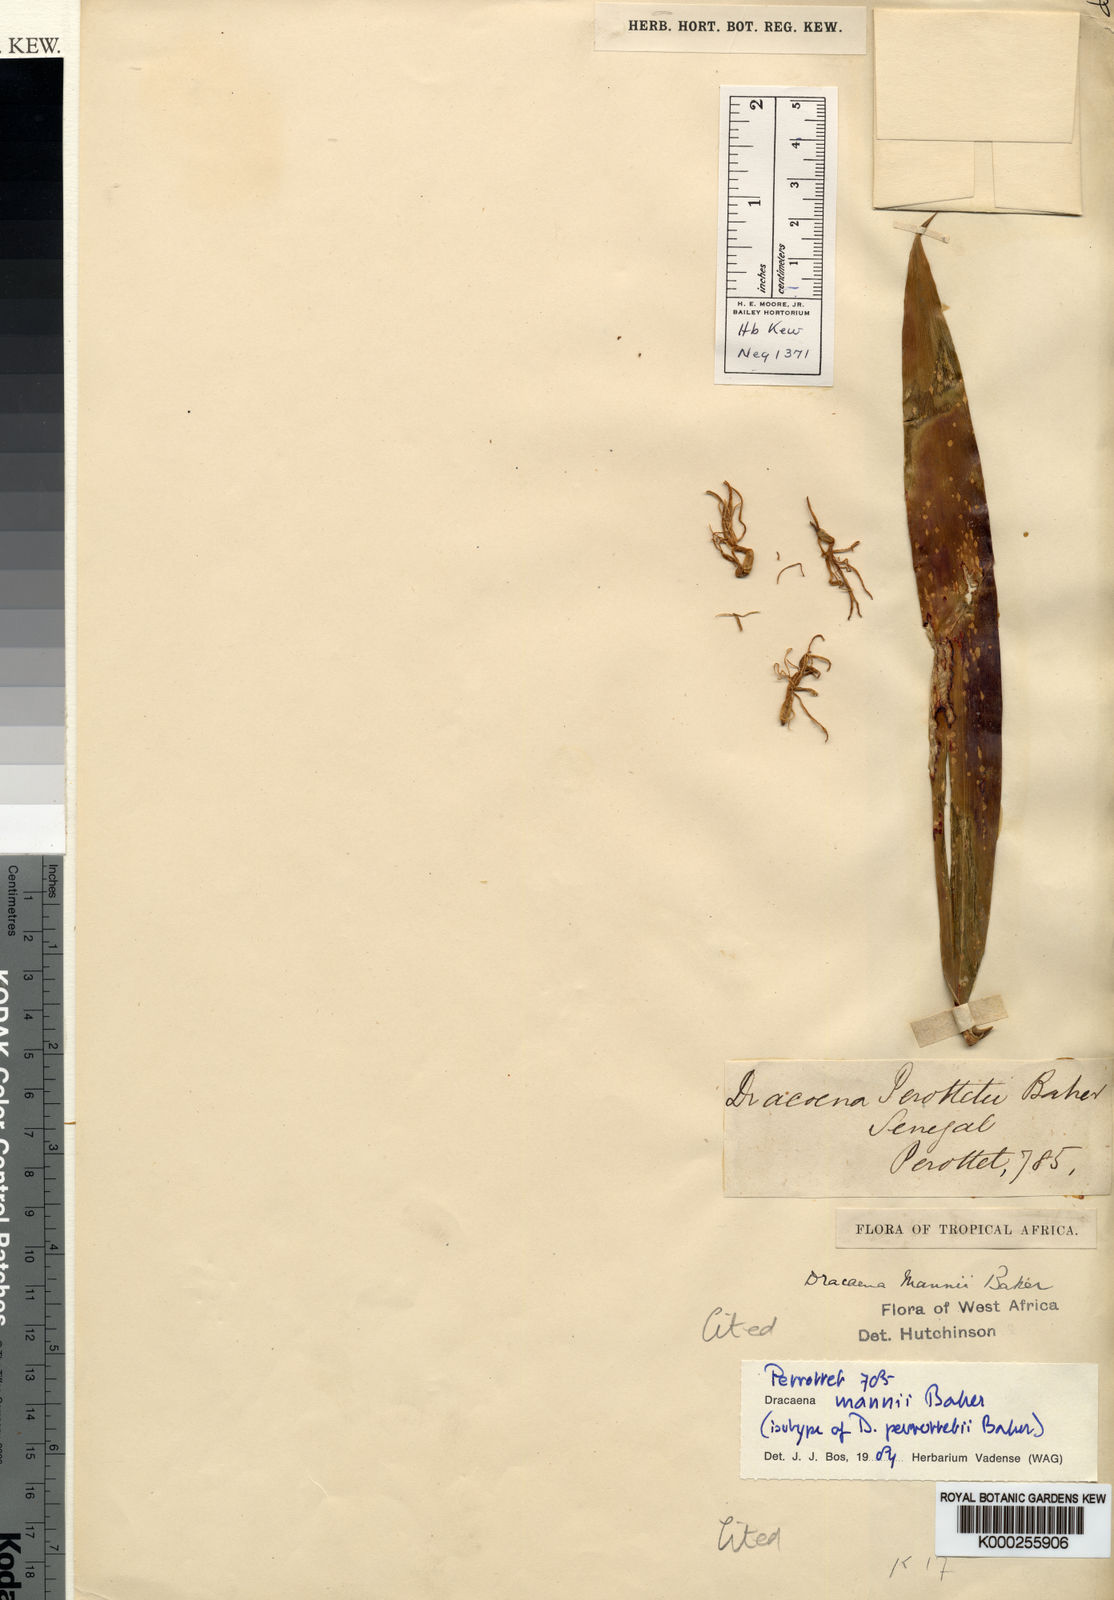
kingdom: Plantae
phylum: Tracheophyta
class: Liliopsida
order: Asparagales
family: Asparagaceae
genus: Dracaena
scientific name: Dracaena perrottetii
